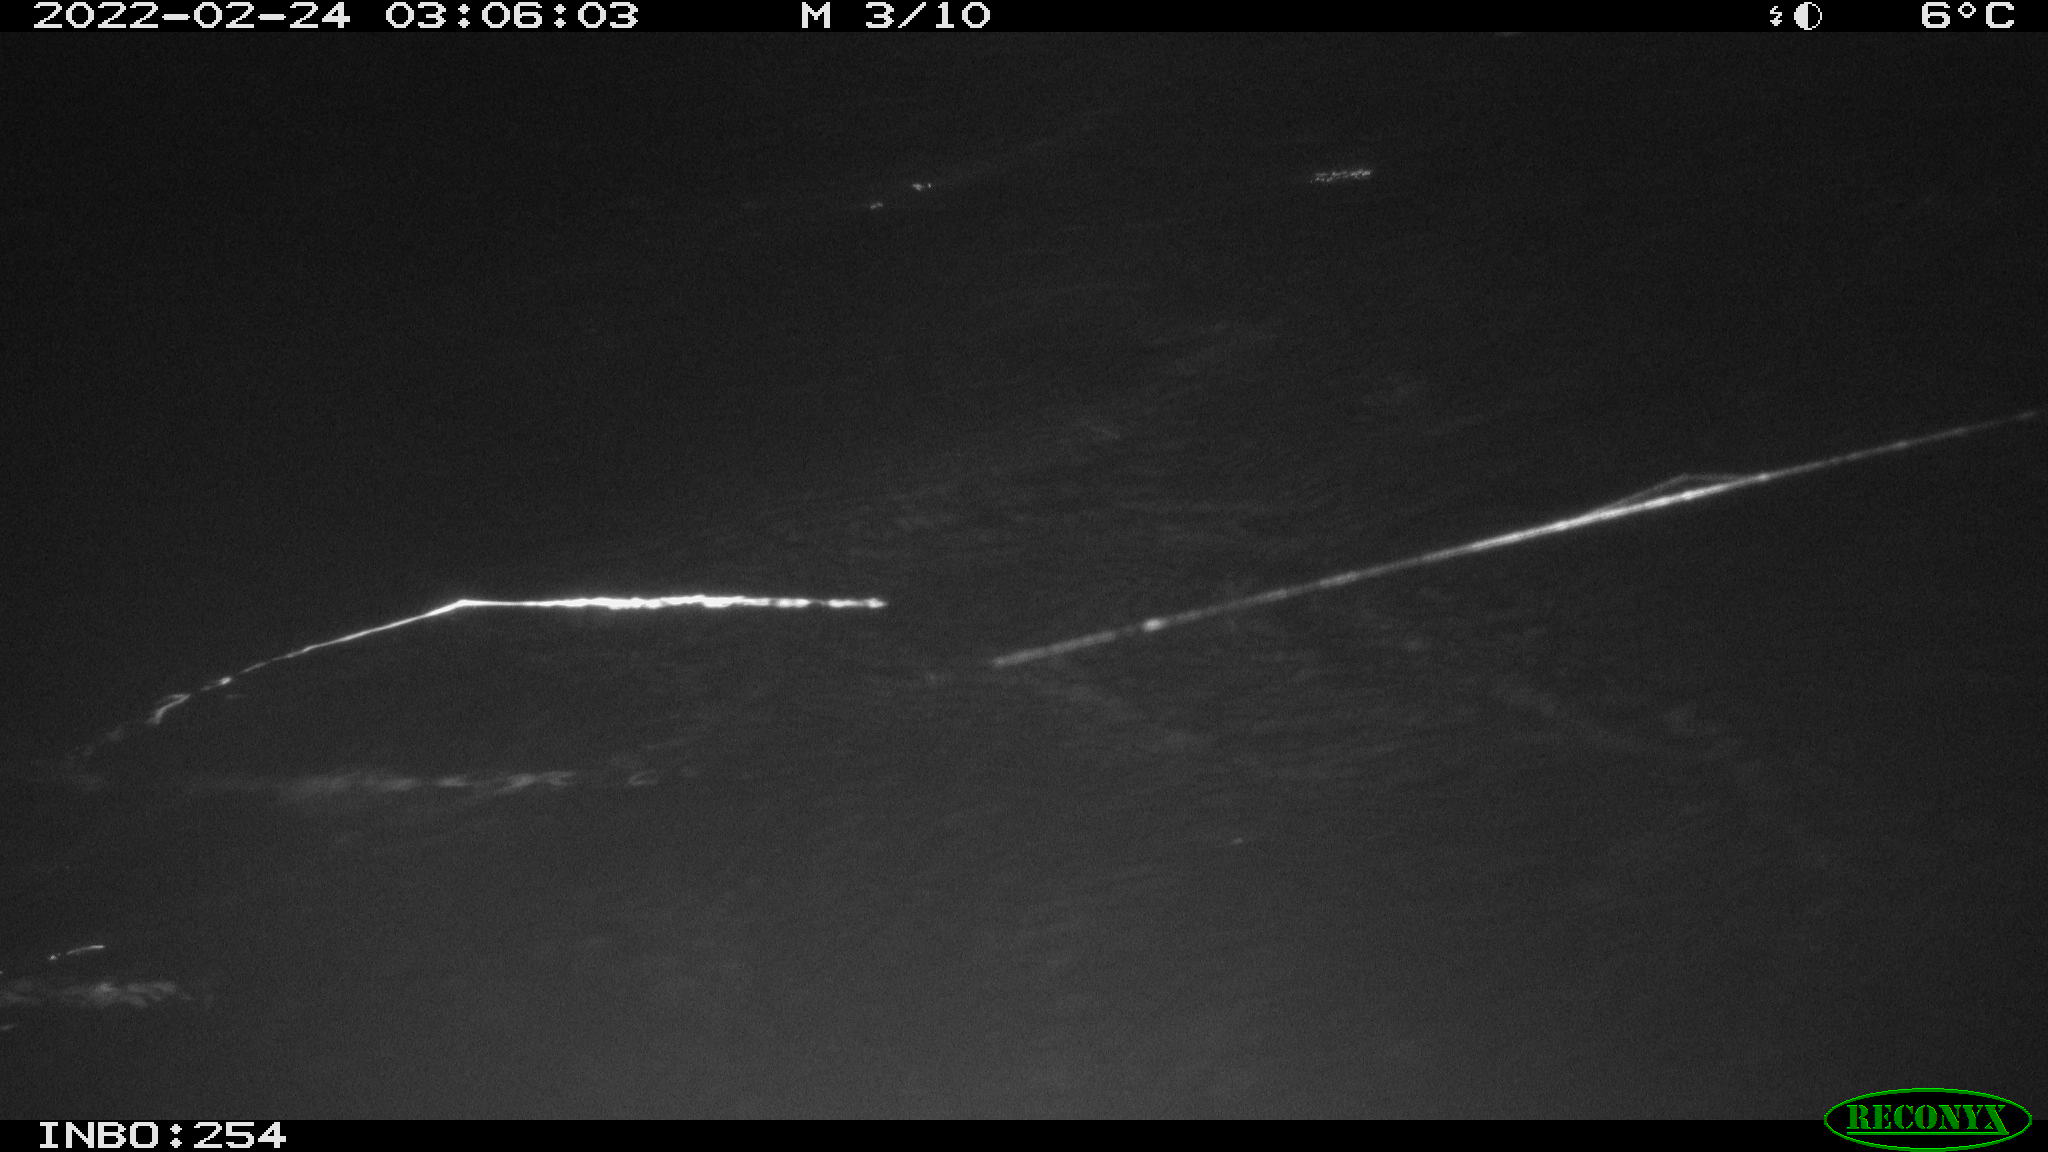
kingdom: Animalia
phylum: Chordata
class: Mammalia
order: Rodentia
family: Muridae
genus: Rattus
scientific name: Rattus norvegicus
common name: Brown rat
